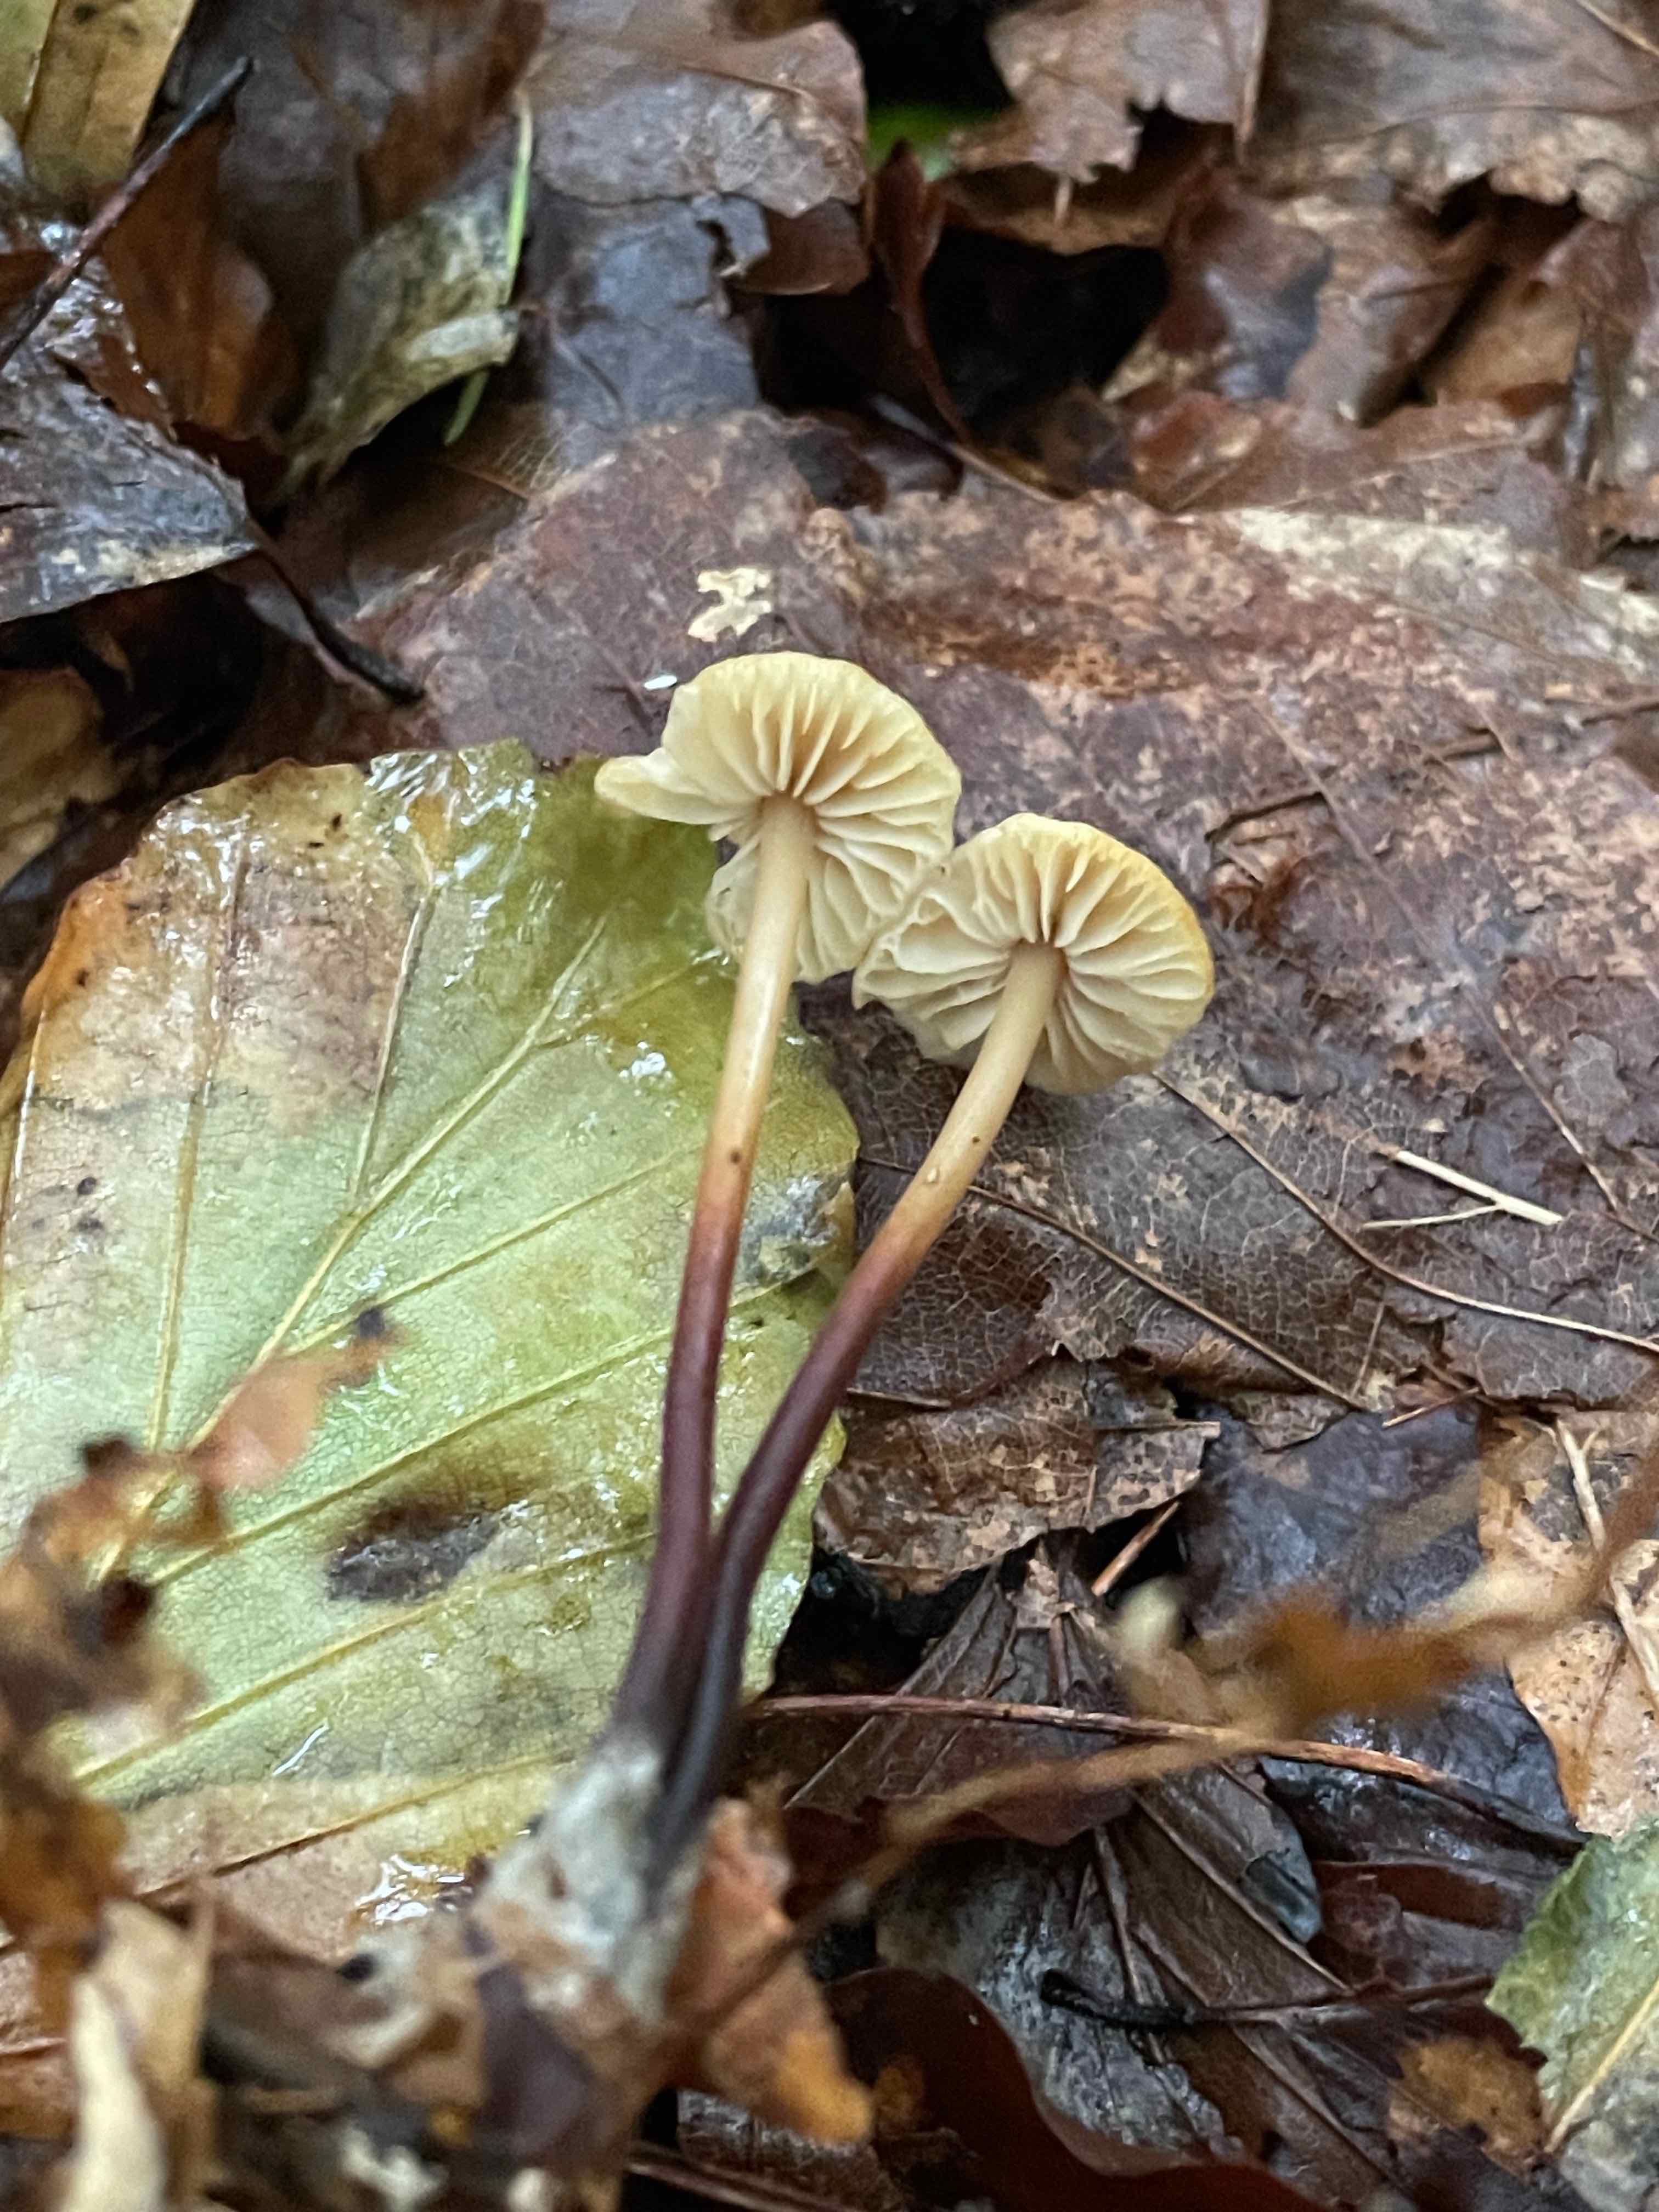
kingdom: Fungi
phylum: Basidiomycota
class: Agaricomycetes
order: Agaricales
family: Marasmiaceae
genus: Marasmius
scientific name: Marasmius torquescens
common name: filtfodet bruskhat
